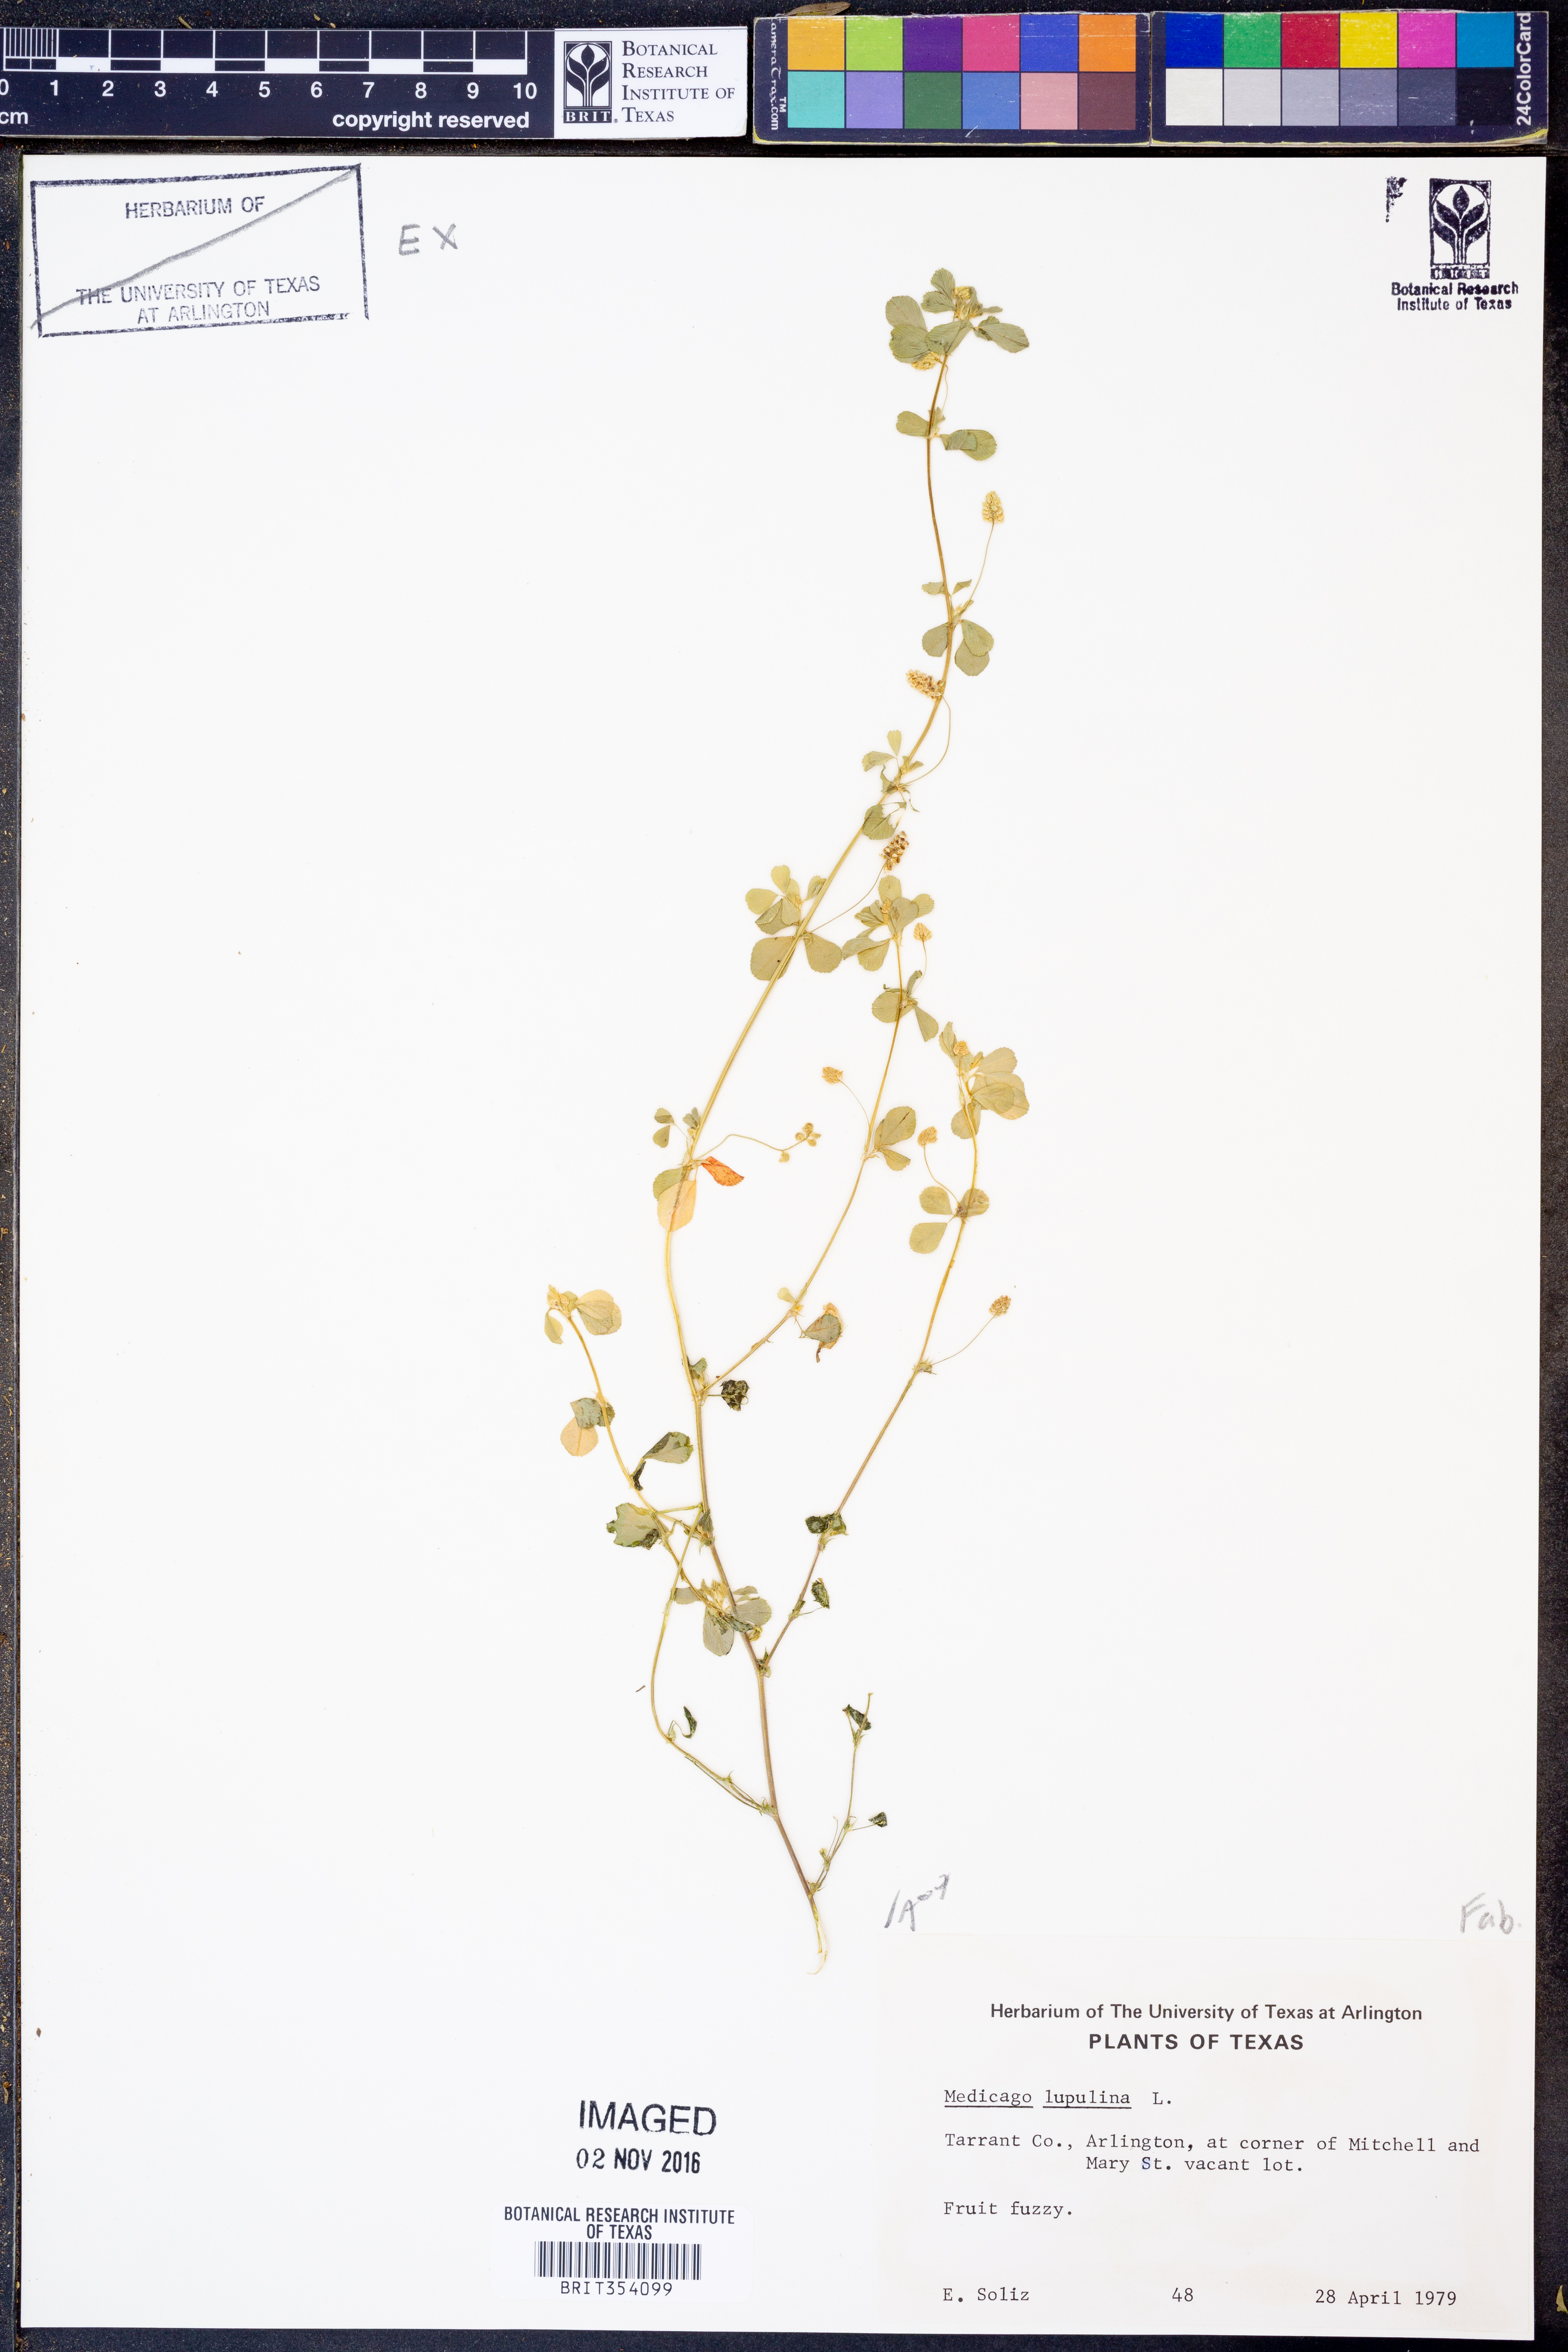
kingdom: Plantae
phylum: Tracheophyta
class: Magnoliopsida
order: Fabales
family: Fabaceae
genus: Medicago
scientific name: Medicago lupulina
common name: Black medick
